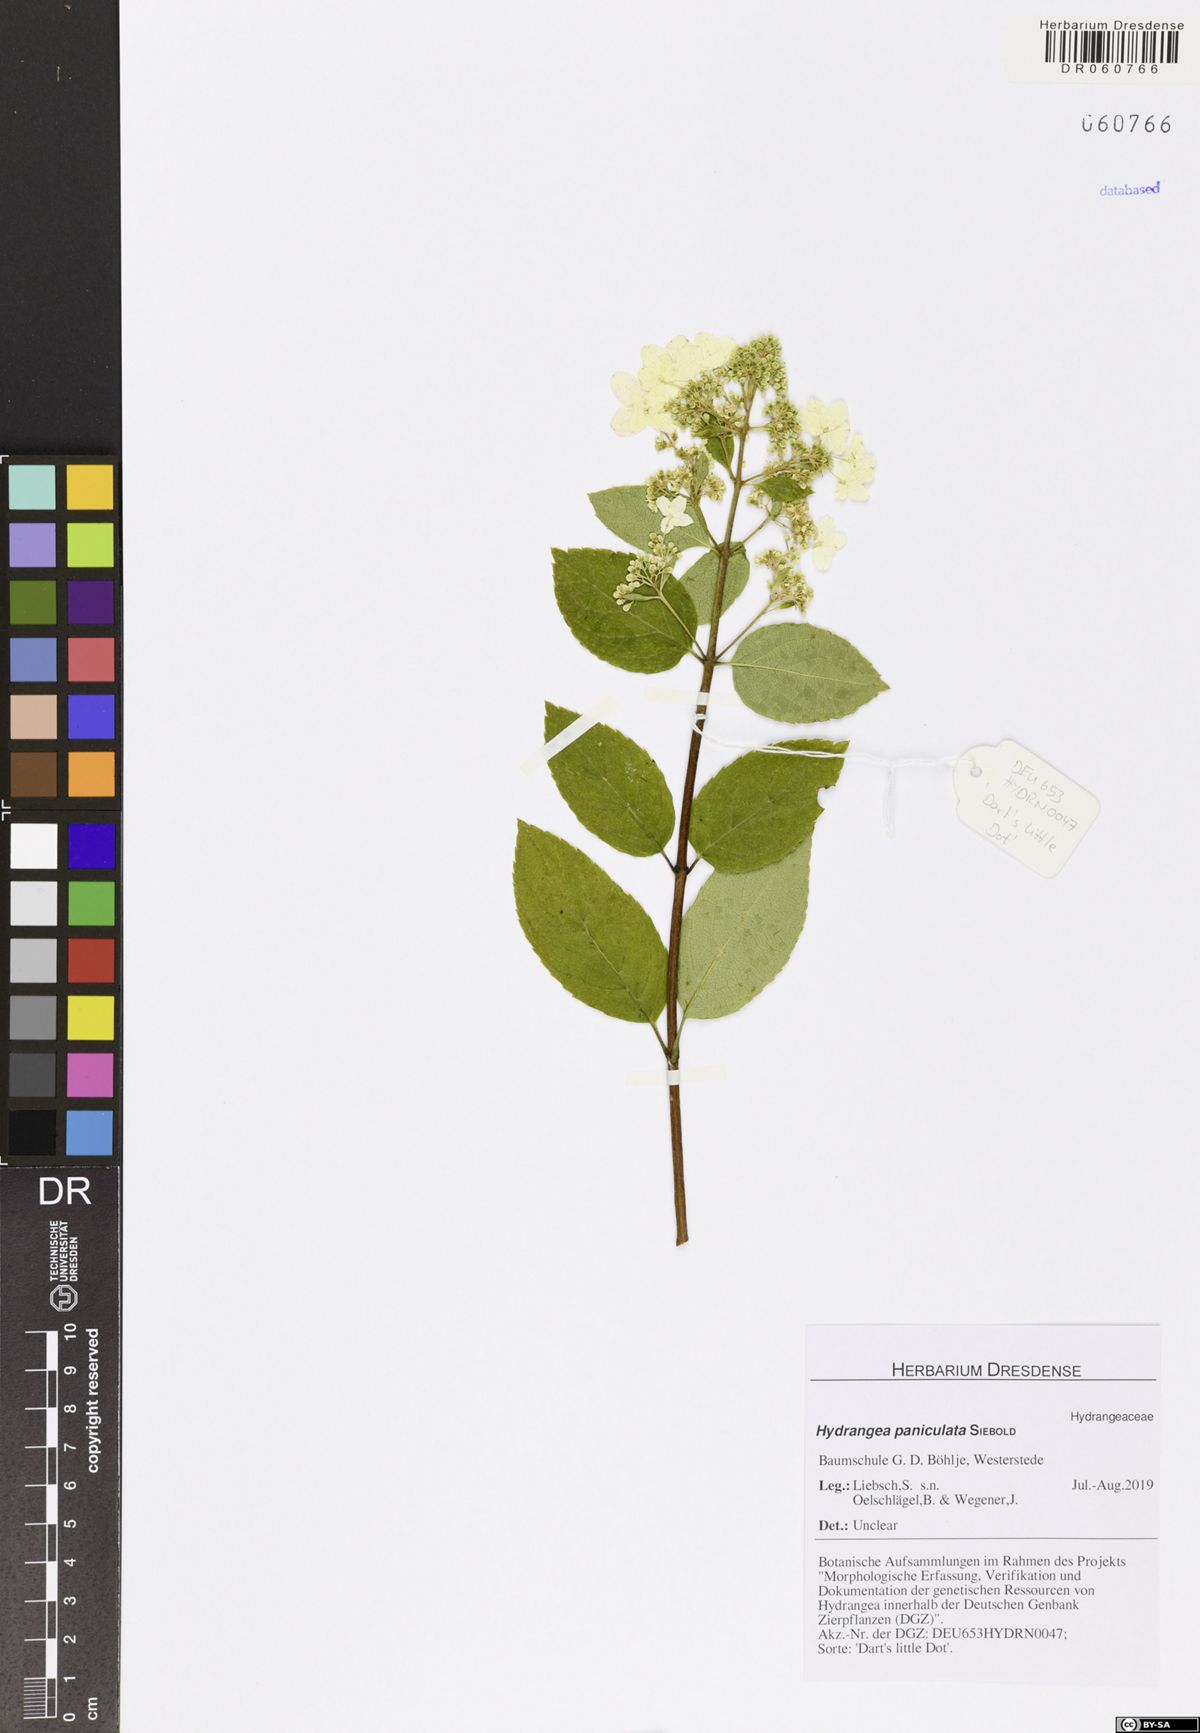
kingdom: Plantae
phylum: Tracheophyta
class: Magnoliopsida
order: Cornales
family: Hydrangeaceae
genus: Hydrangea
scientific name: Hydrangea paniculata
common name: Panicled hydrangea
